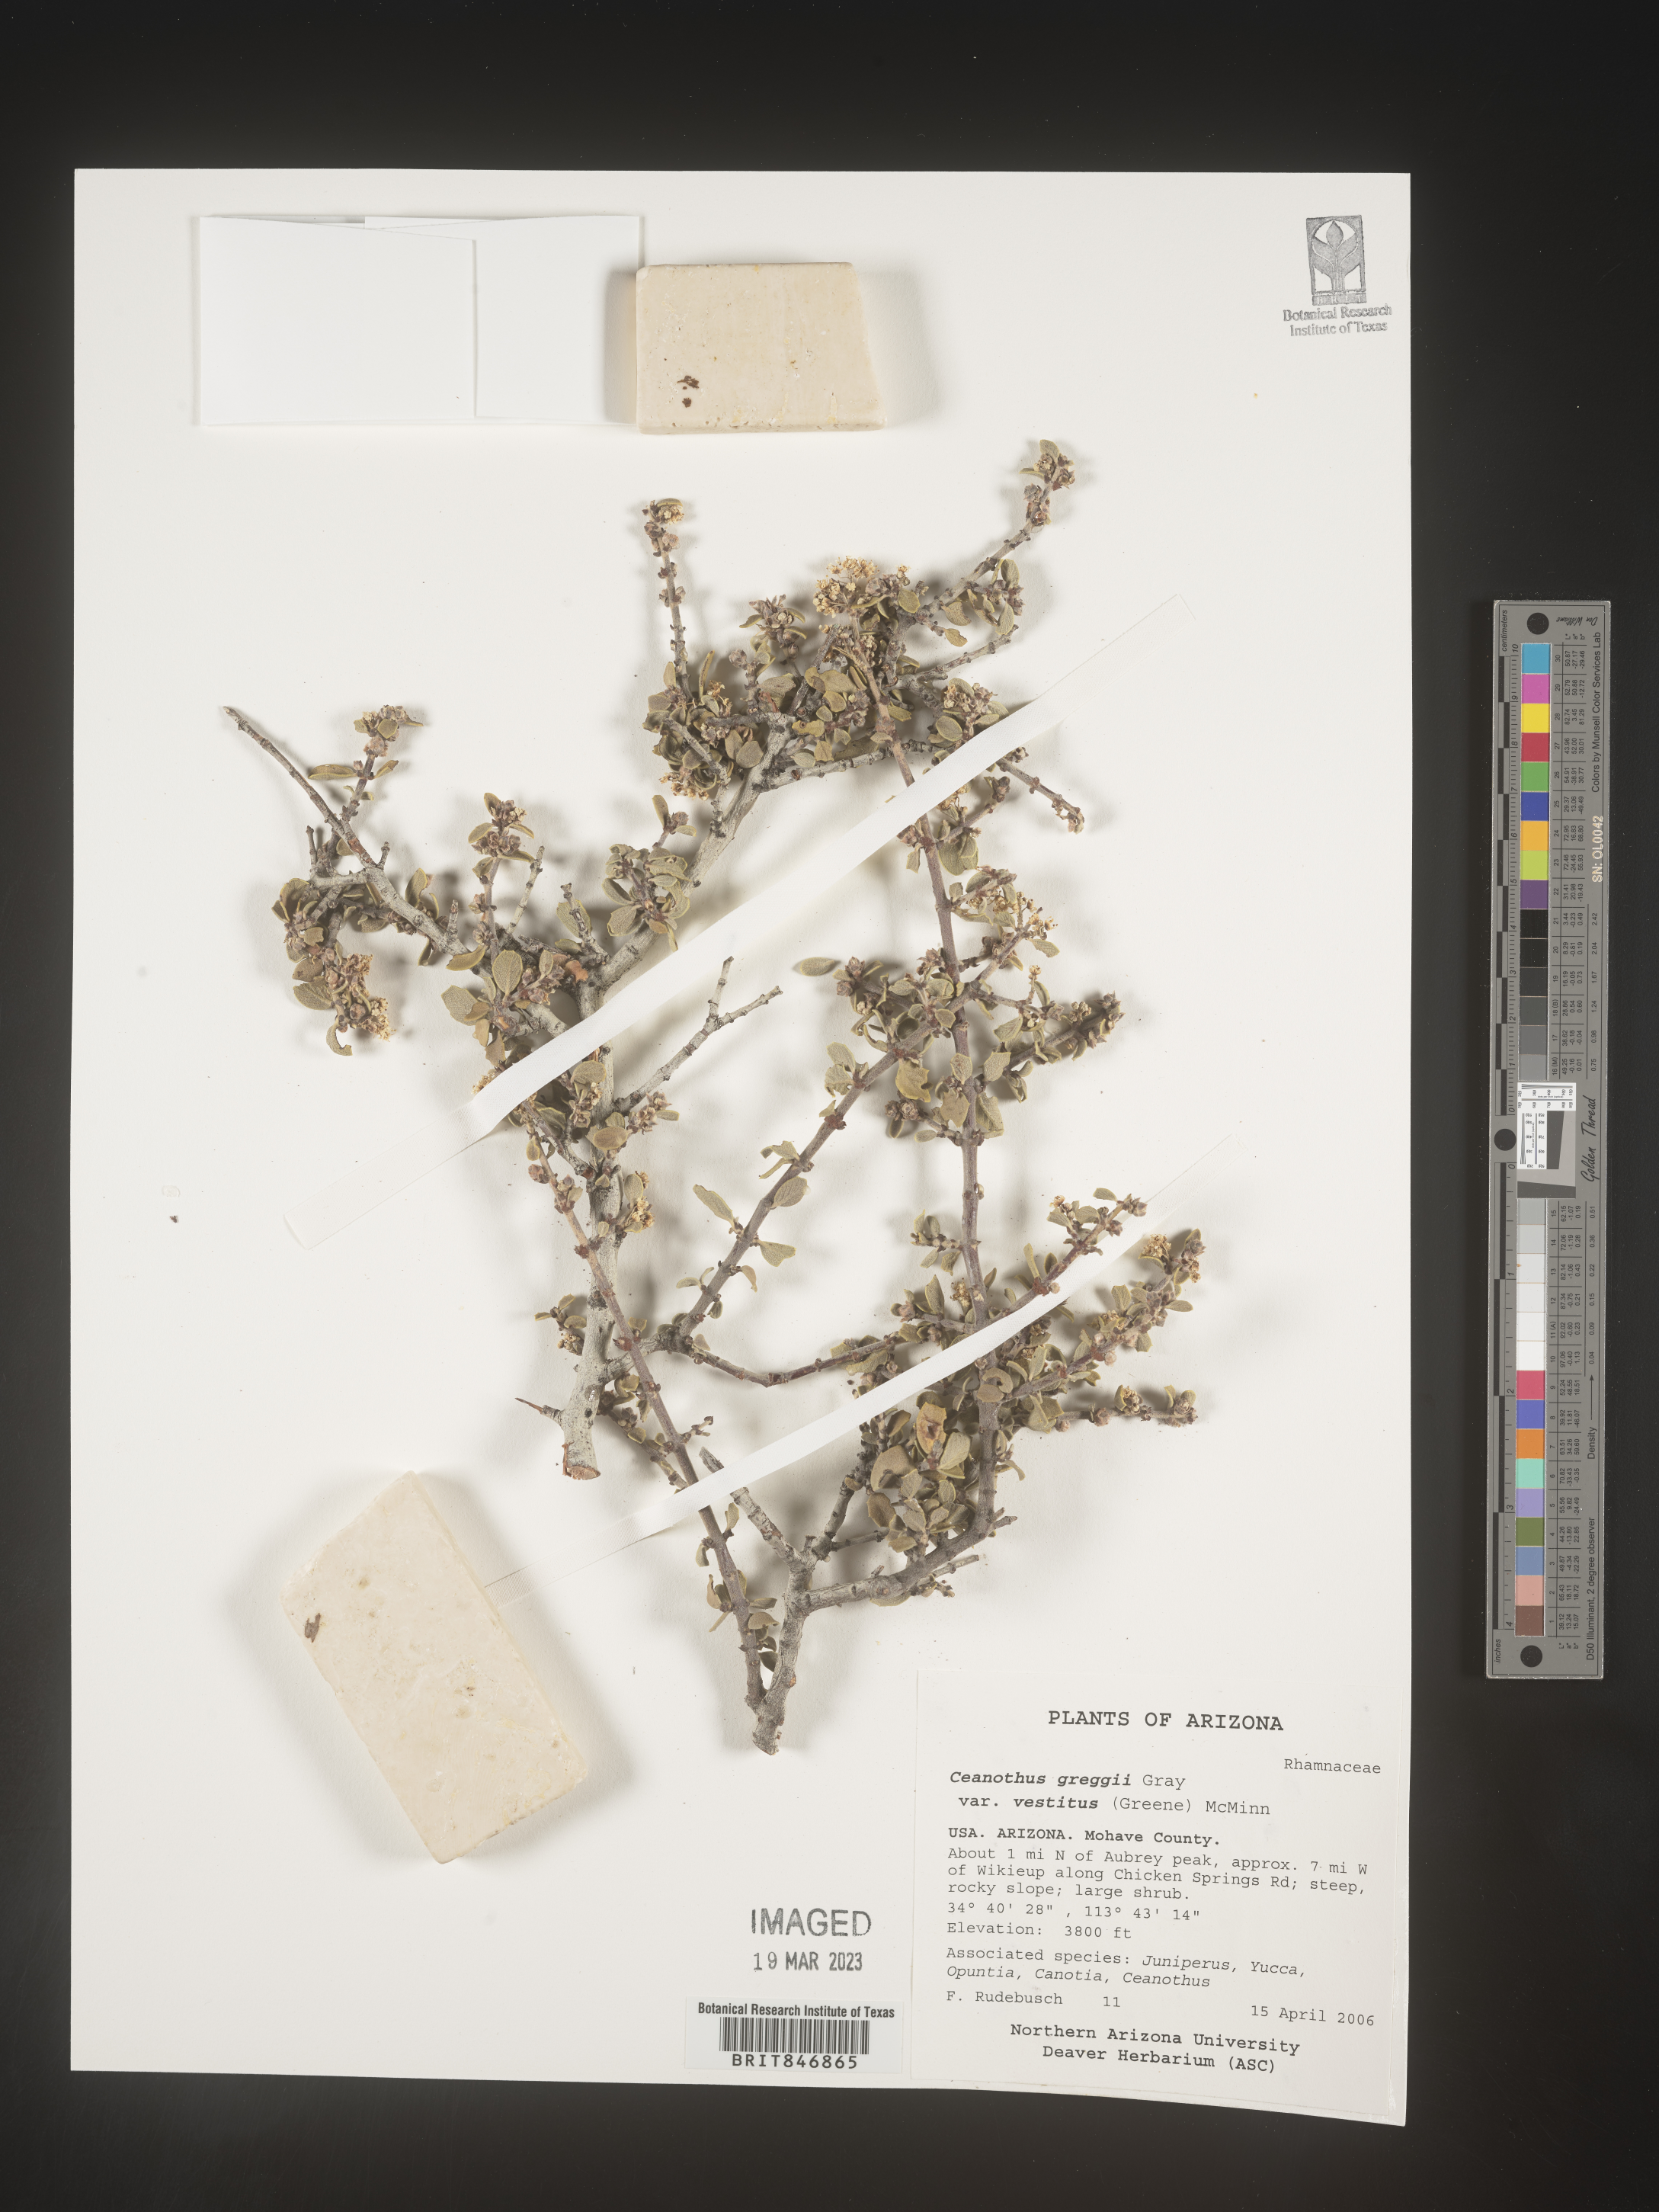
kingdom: Plantae
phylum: Tracheophyta
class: Magnoliopsida
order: Rosales
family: Rhamnaceae
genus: Ceanothus
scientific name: Ceanothus
